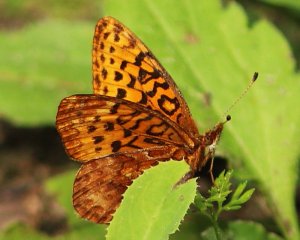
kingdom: Animalia
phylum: Arthropoda
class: Insecta
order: Lepidoptera
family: Nymphalidae
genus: Clossiana
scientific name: Clossiana toddi
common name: Meadow Fritillary
